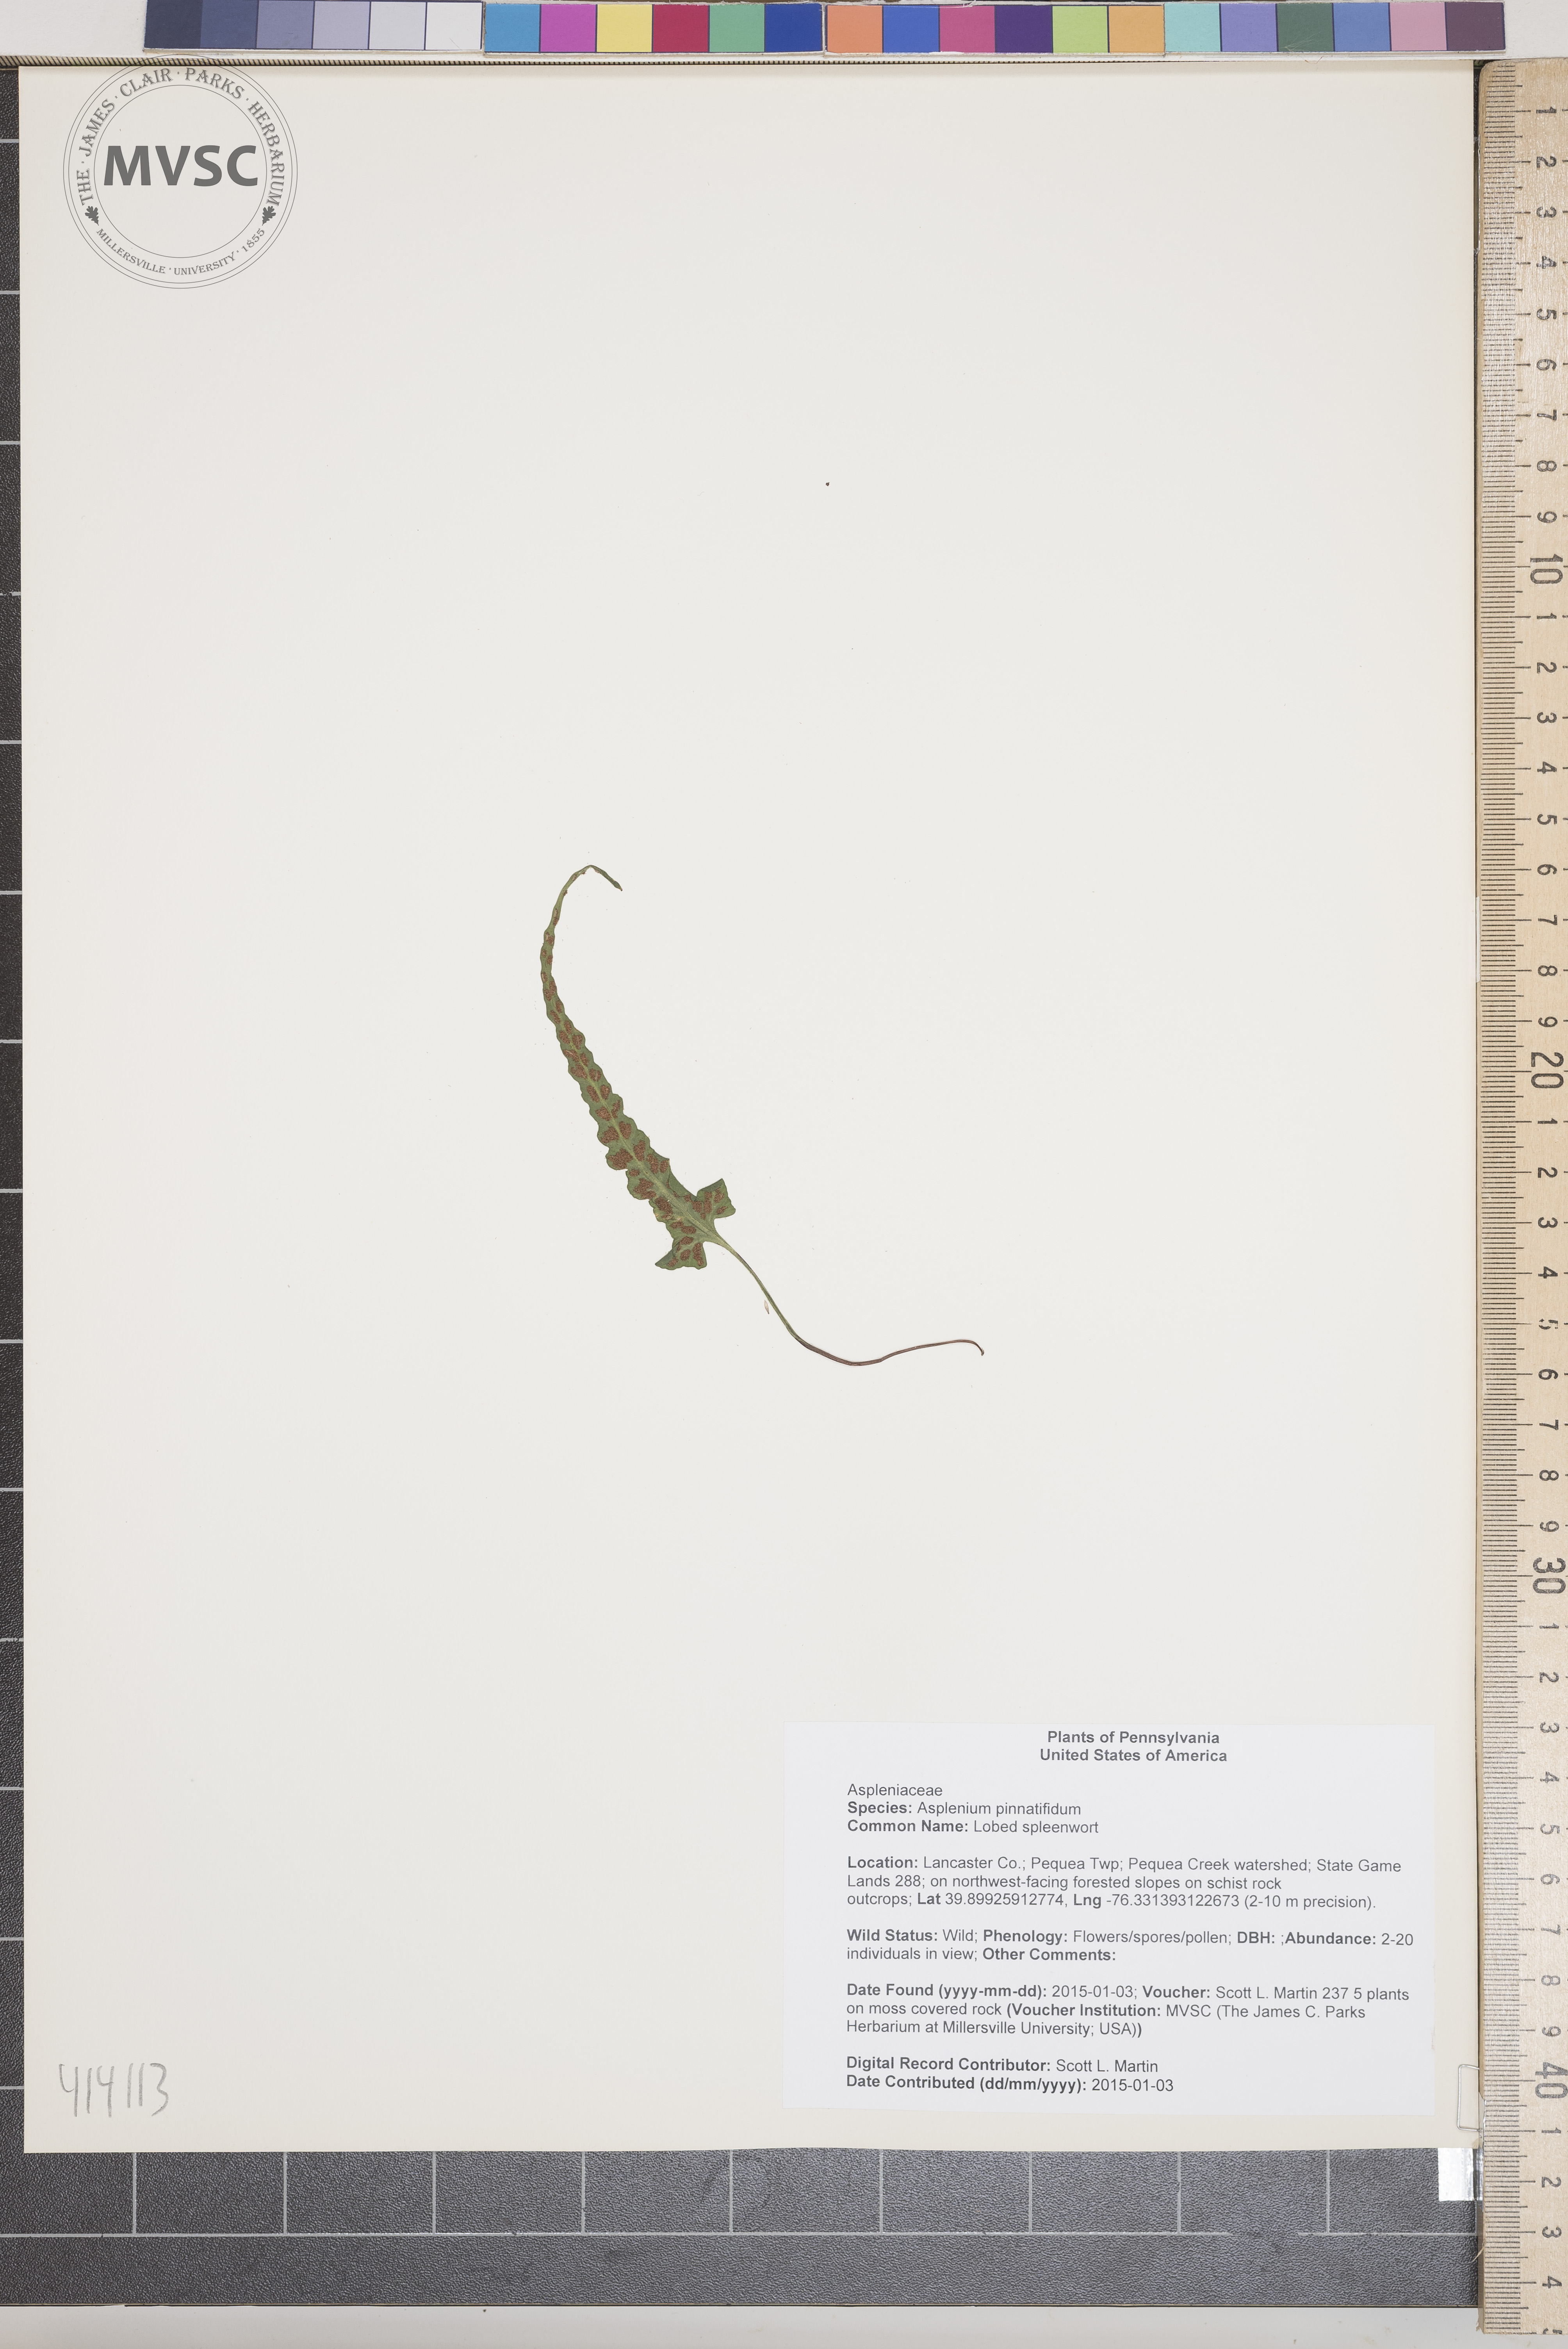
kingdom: Plantae
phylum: Tracheophyta
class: Polypodiopsida
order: Polypodiales
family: Aspleniaceae
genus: Asplenium
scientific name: Asplenium pinnatifidum
